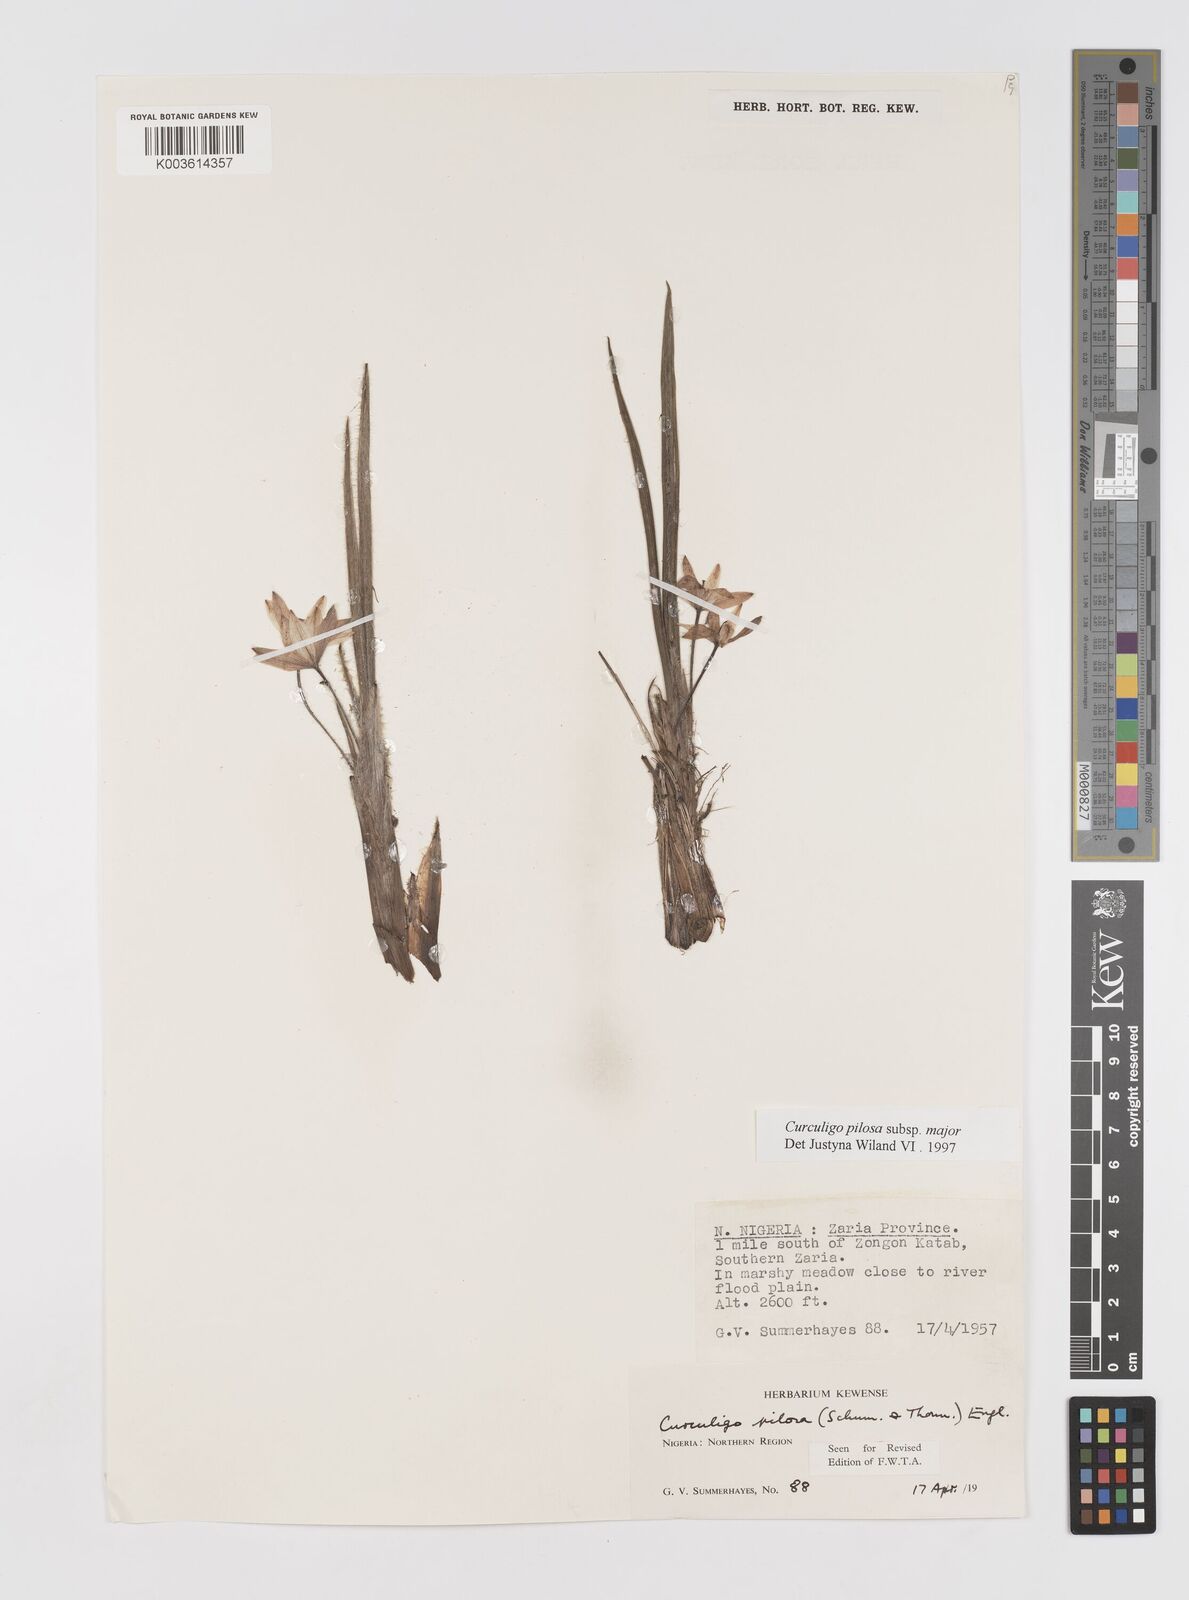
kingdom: Plantae
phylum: Tracheophyta
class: Liliopsida
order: Asparagales
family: Hypoxidaceae
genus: Curculigo
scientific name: Curculigo pilosa
